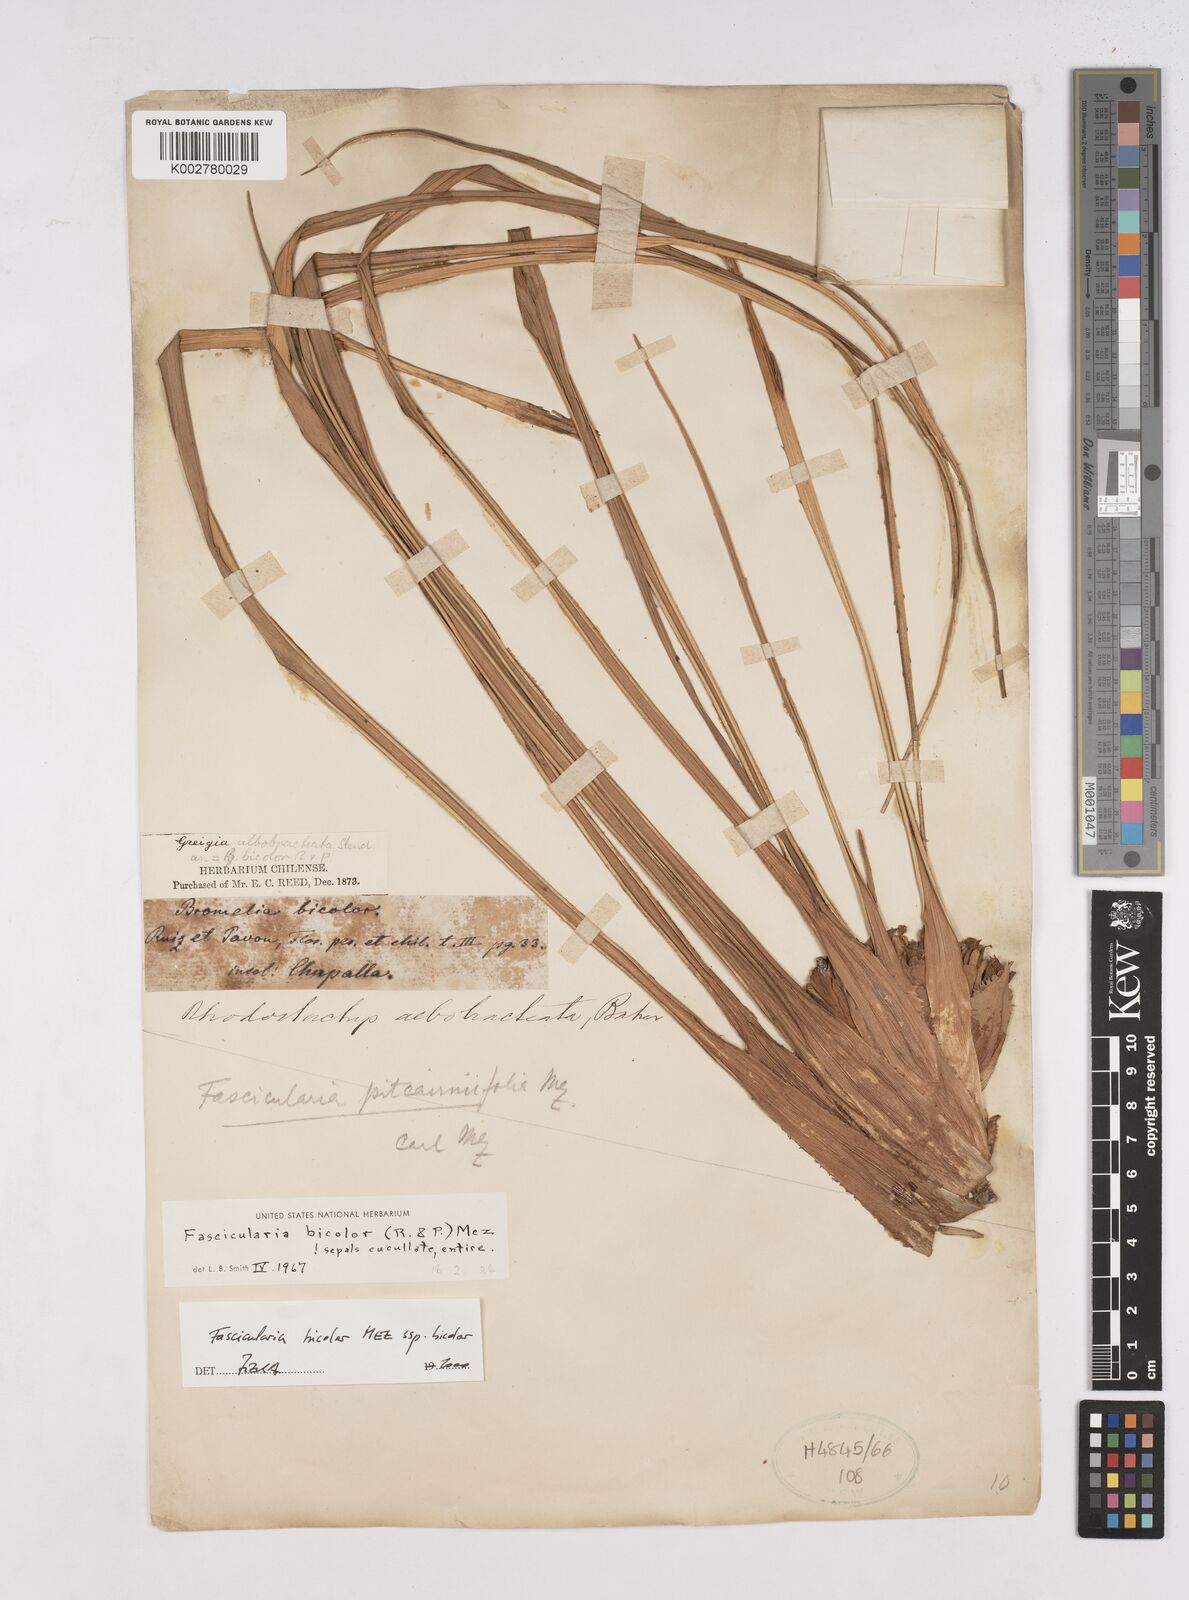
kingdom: Plantae
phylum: Tracheophyta
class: Liliopsida
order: Poales
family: Bromeliaceae
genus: Fascicularia
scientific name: Fascicularia bicolor
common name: Rhodostachys
